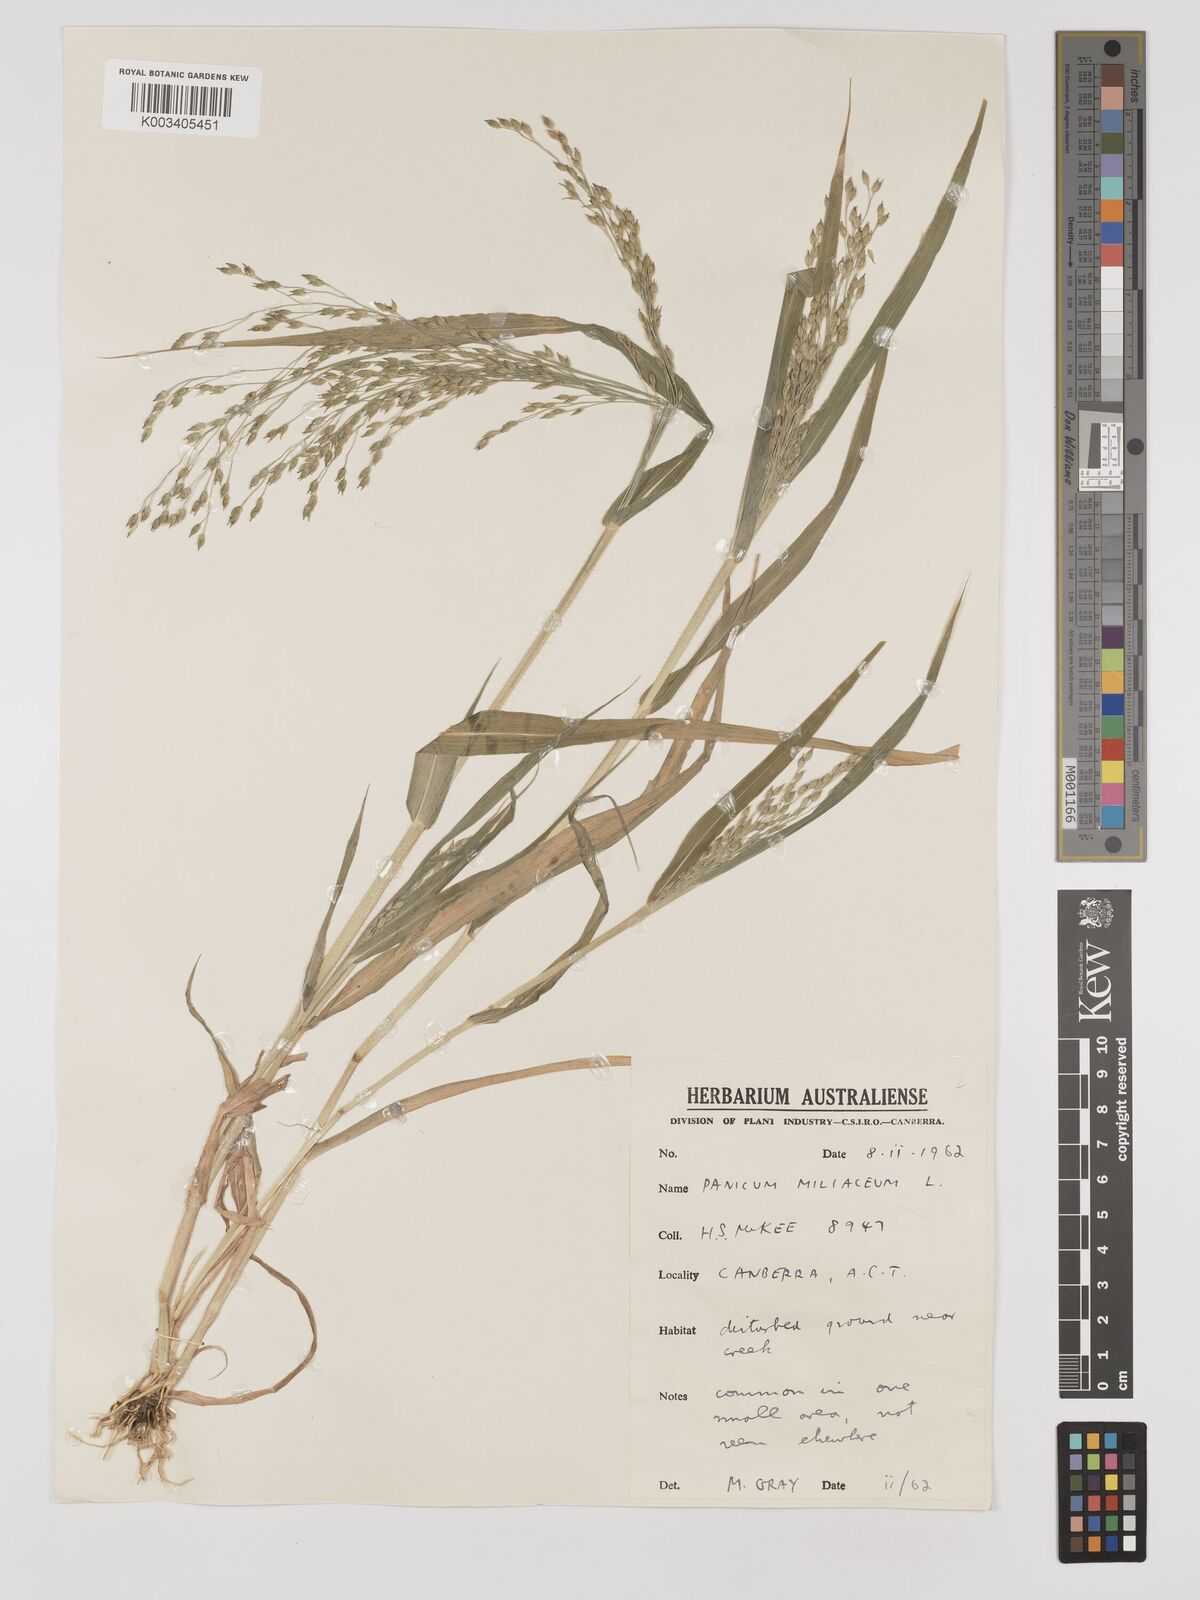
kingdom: Plantae
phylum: Tracheophyta
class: Liliopsida
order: Poales
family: Poaceae
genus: Panicum
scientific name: Panicum miliaceum
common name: Common millet
